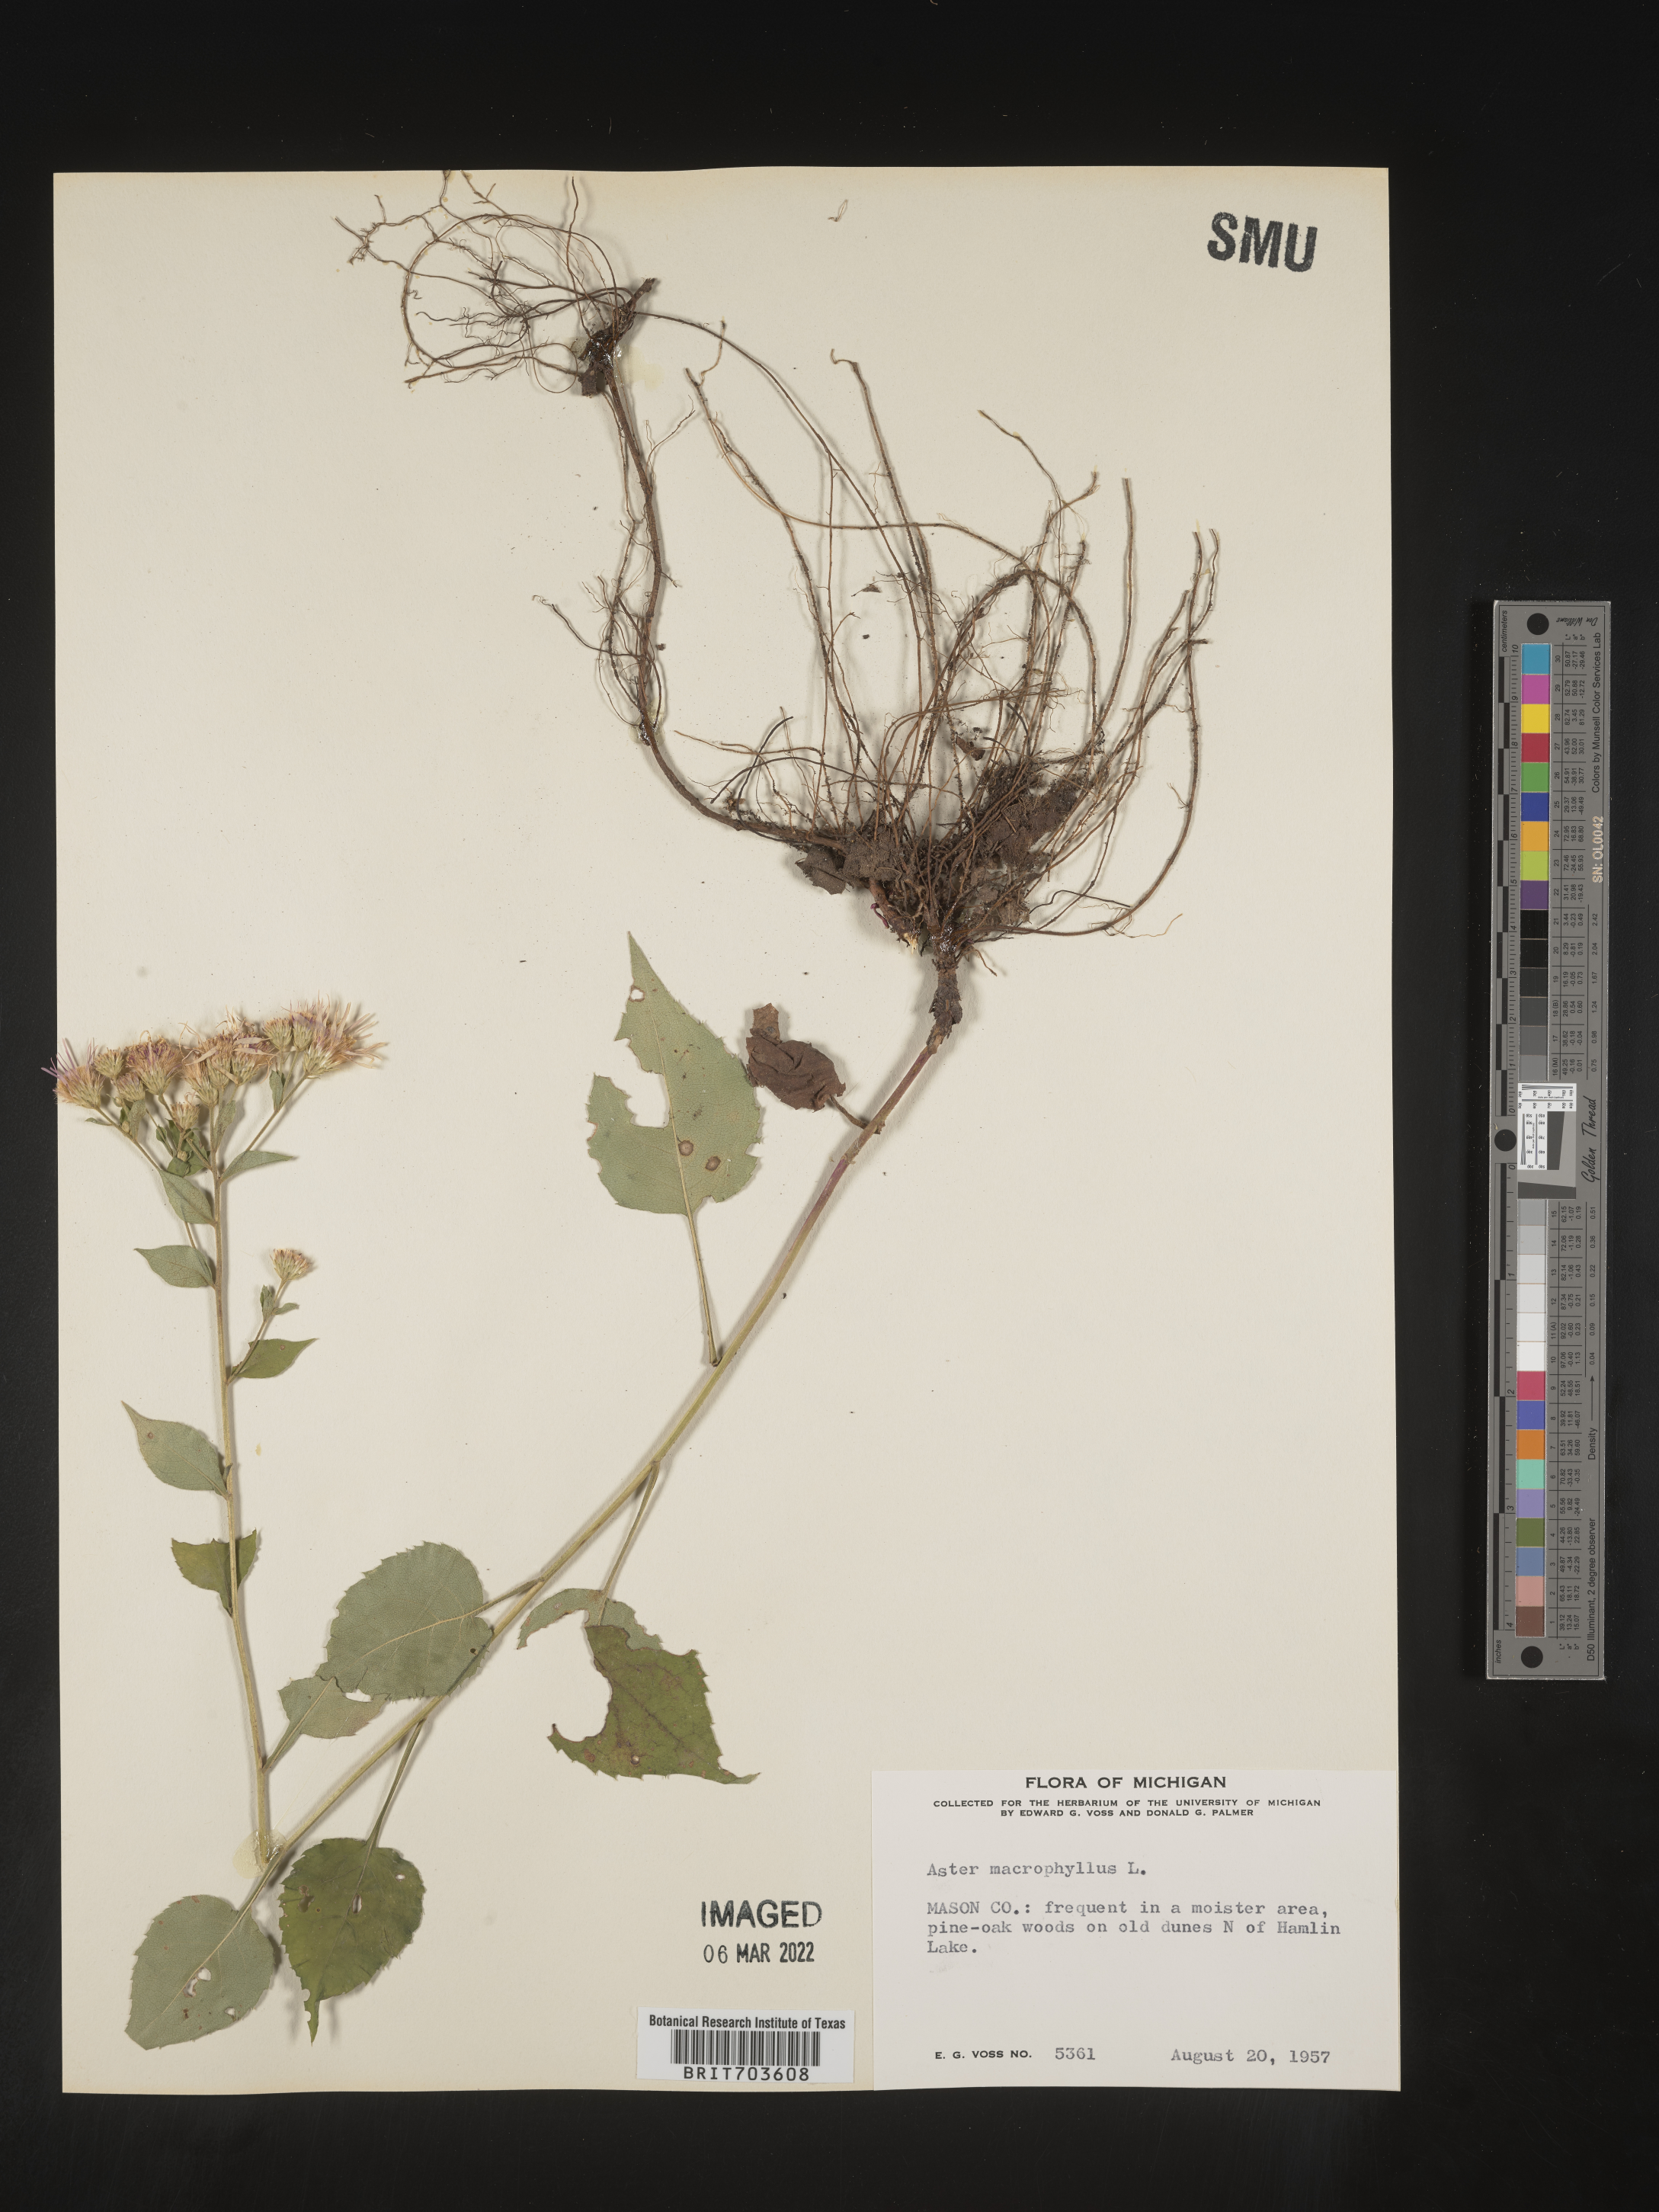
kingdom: Plantae
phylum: Tracheophyta
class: Magnoliopsida
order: Asterales
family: Asteraceae
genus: Eurybia
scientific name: Eurybia macrophylla
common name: Big-leaved aster
